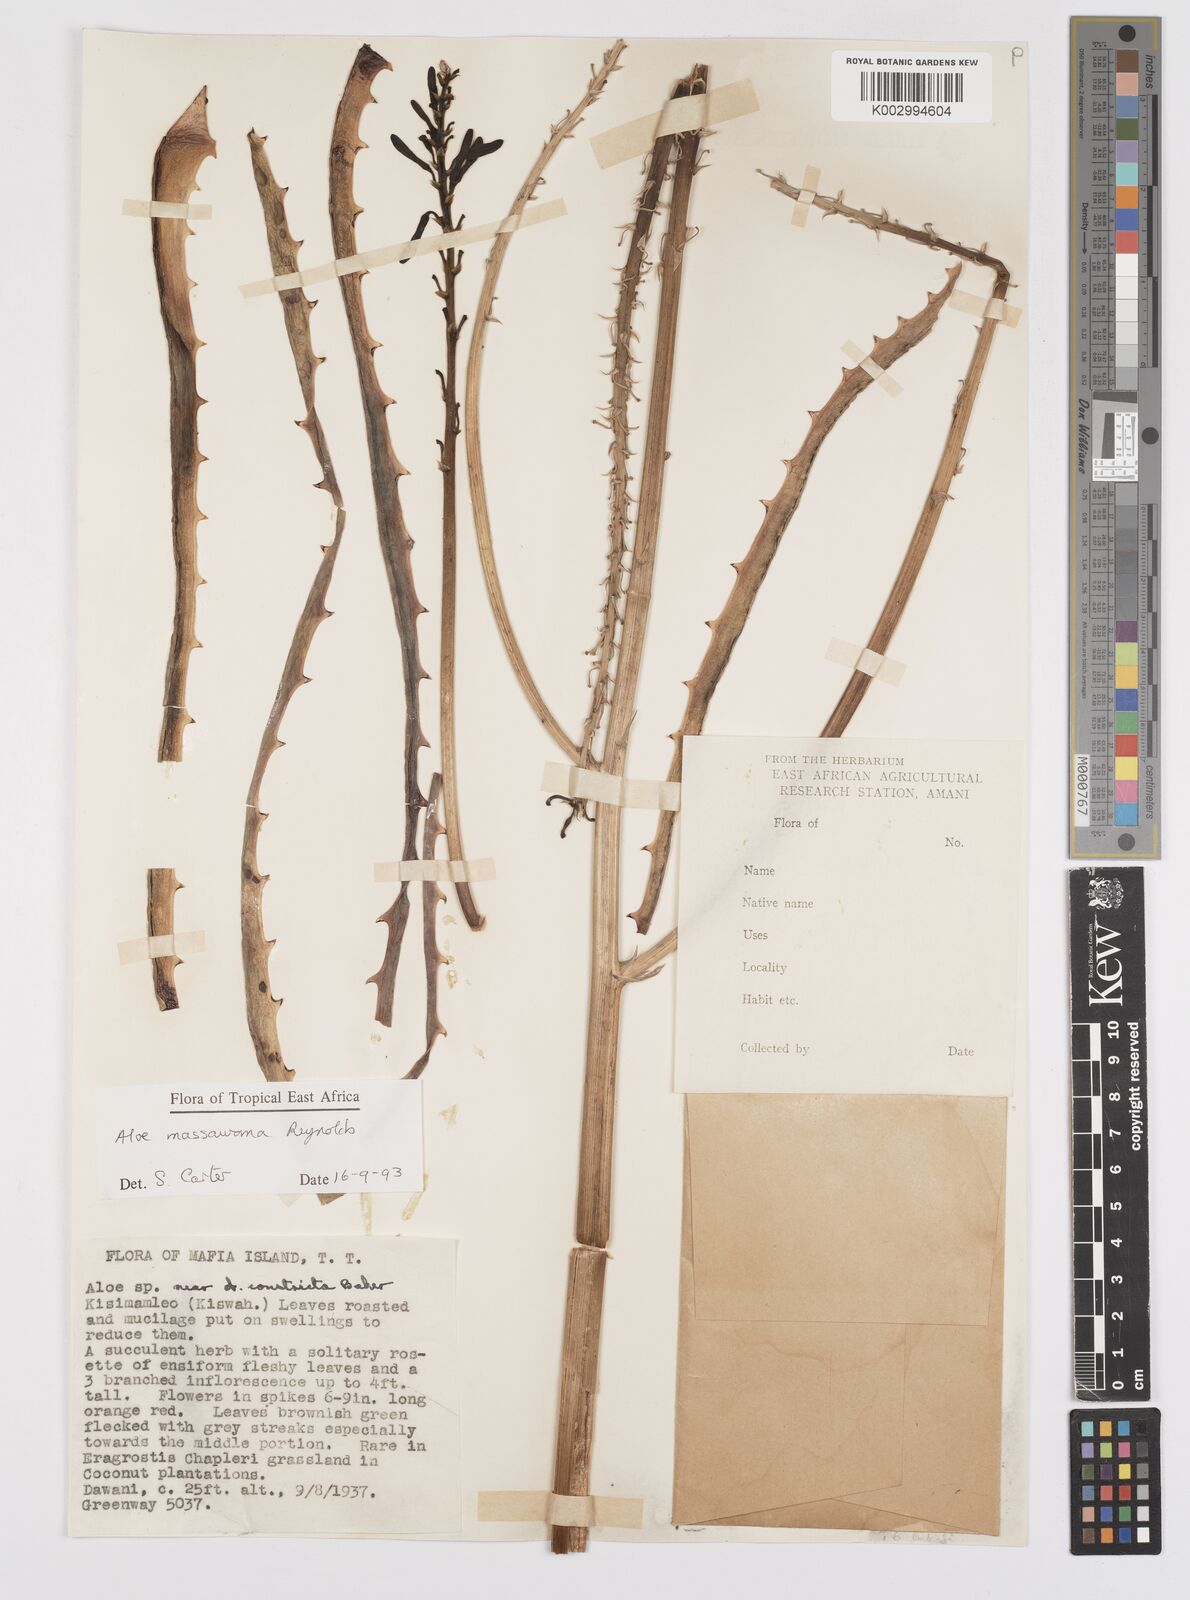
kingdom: Plantae
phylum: Tracheophyta
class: Liliopsida
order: Asparagales
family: Asphodelaceae
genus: Aloe
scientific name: Aloe massawana
